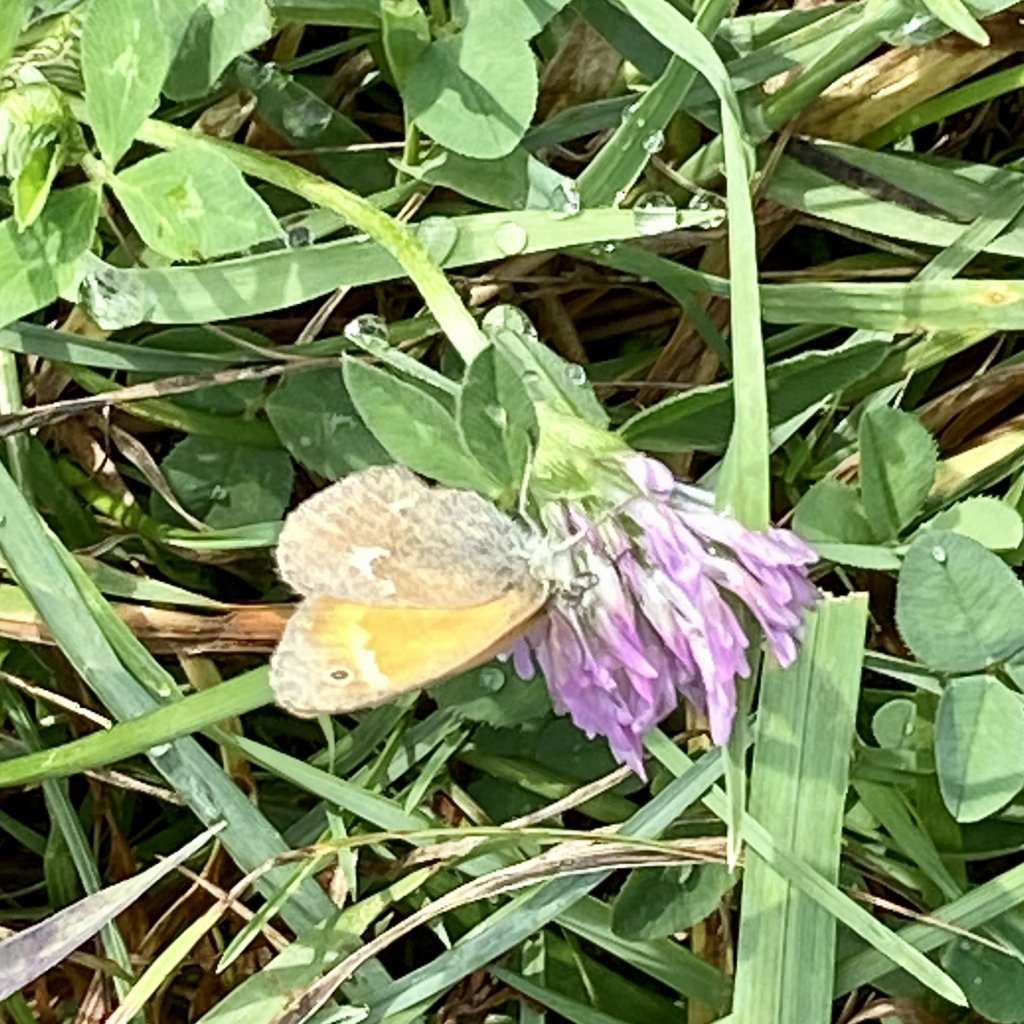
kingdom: Animalia
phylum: Arthropoda
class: Insecta
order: Lepidoptera
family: Nymphalidae
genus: Coenonympha
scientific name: Coenonympha tullia
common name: Large Heath
